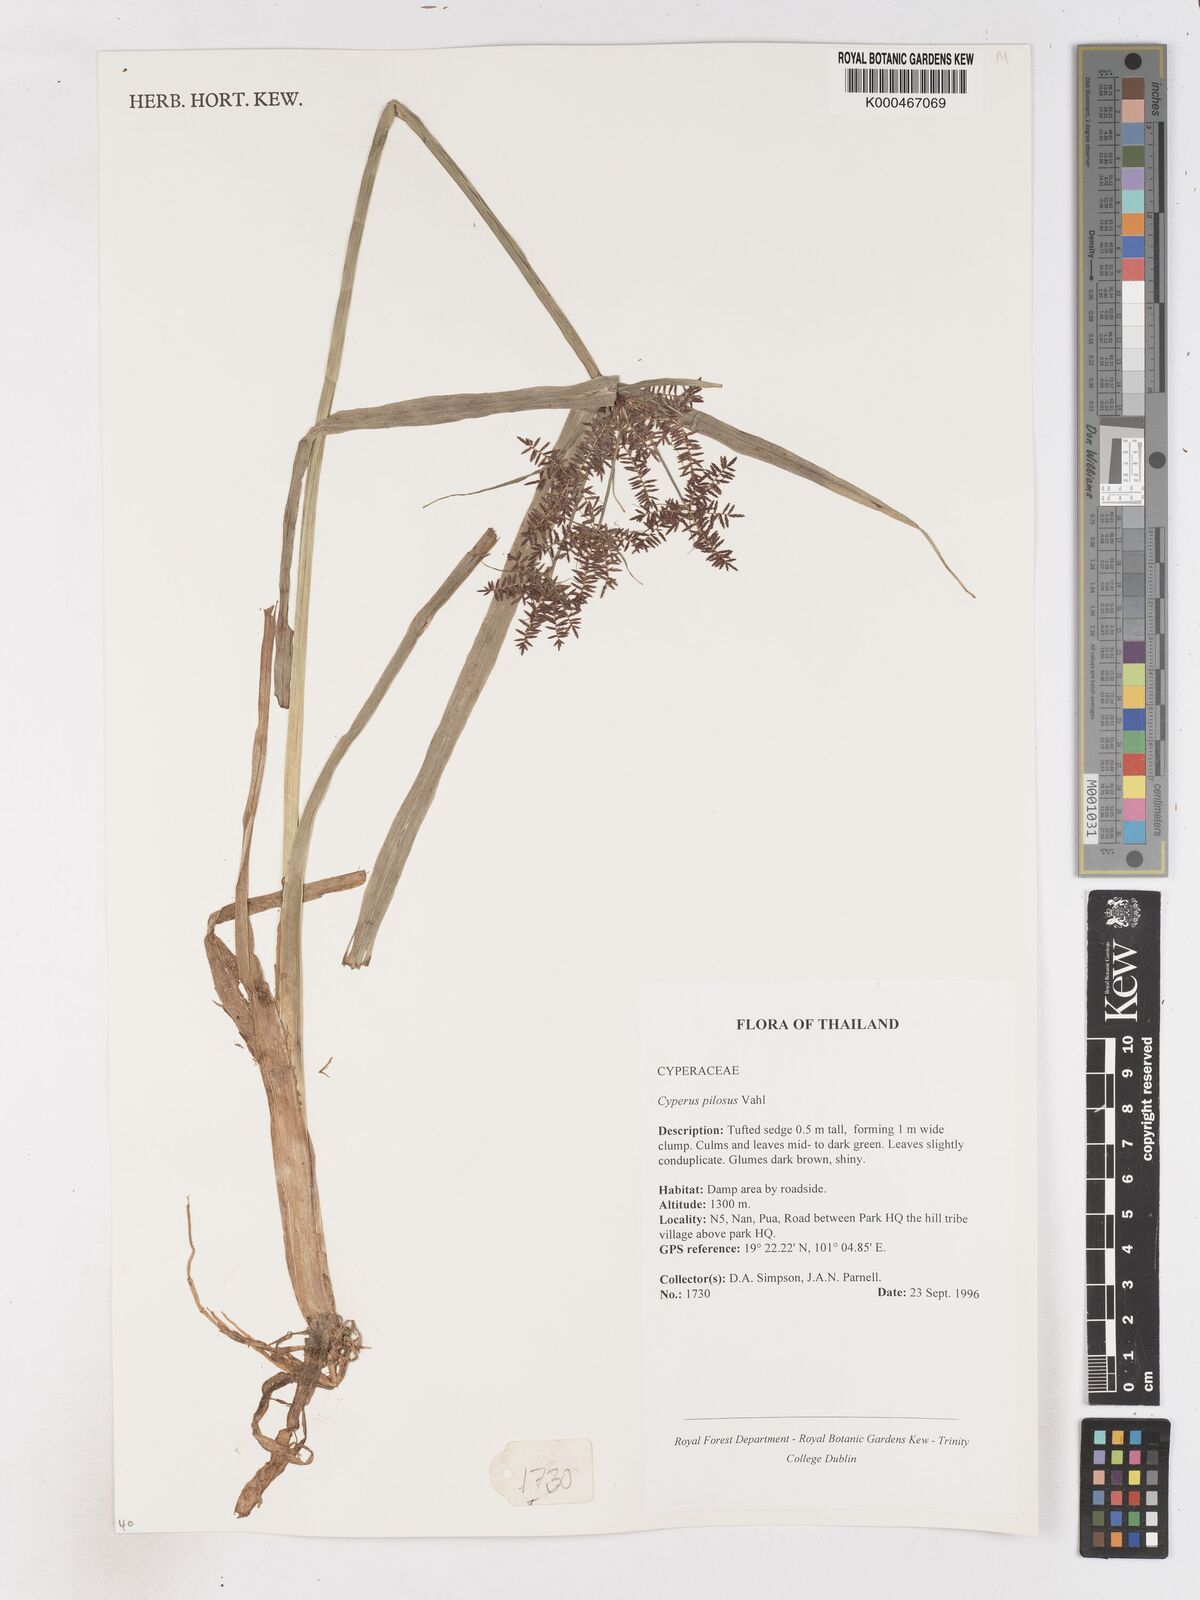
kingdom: Plantae
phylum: Tracheophyta
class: Liliopsida
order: Poales
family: Cyperaceae
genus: Cyperus
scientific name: Cyperus pilosus
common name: Fuzzy flatsedge
